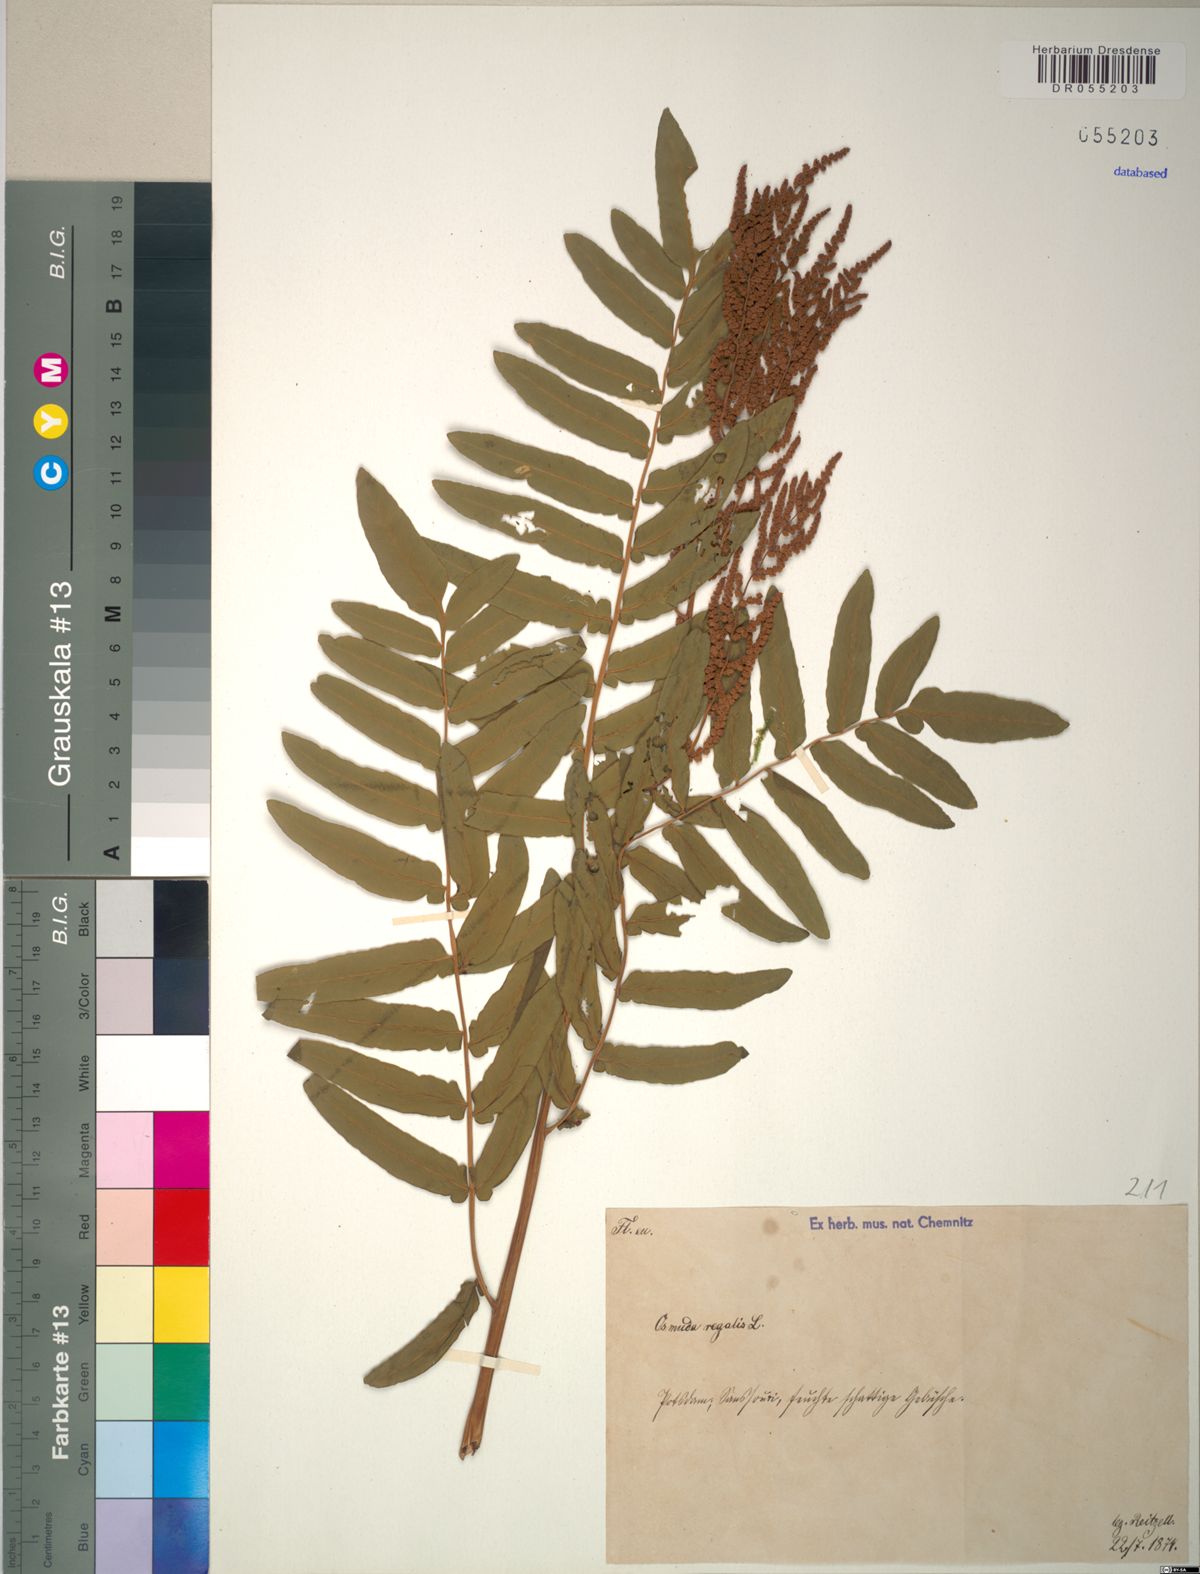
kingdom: Plantae
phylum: Tracheophyta
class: Polypodiopsida
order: Osmundales
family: Osmundaceae
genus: Osmunda
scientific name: Osmunda regalis
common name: Royal fern
